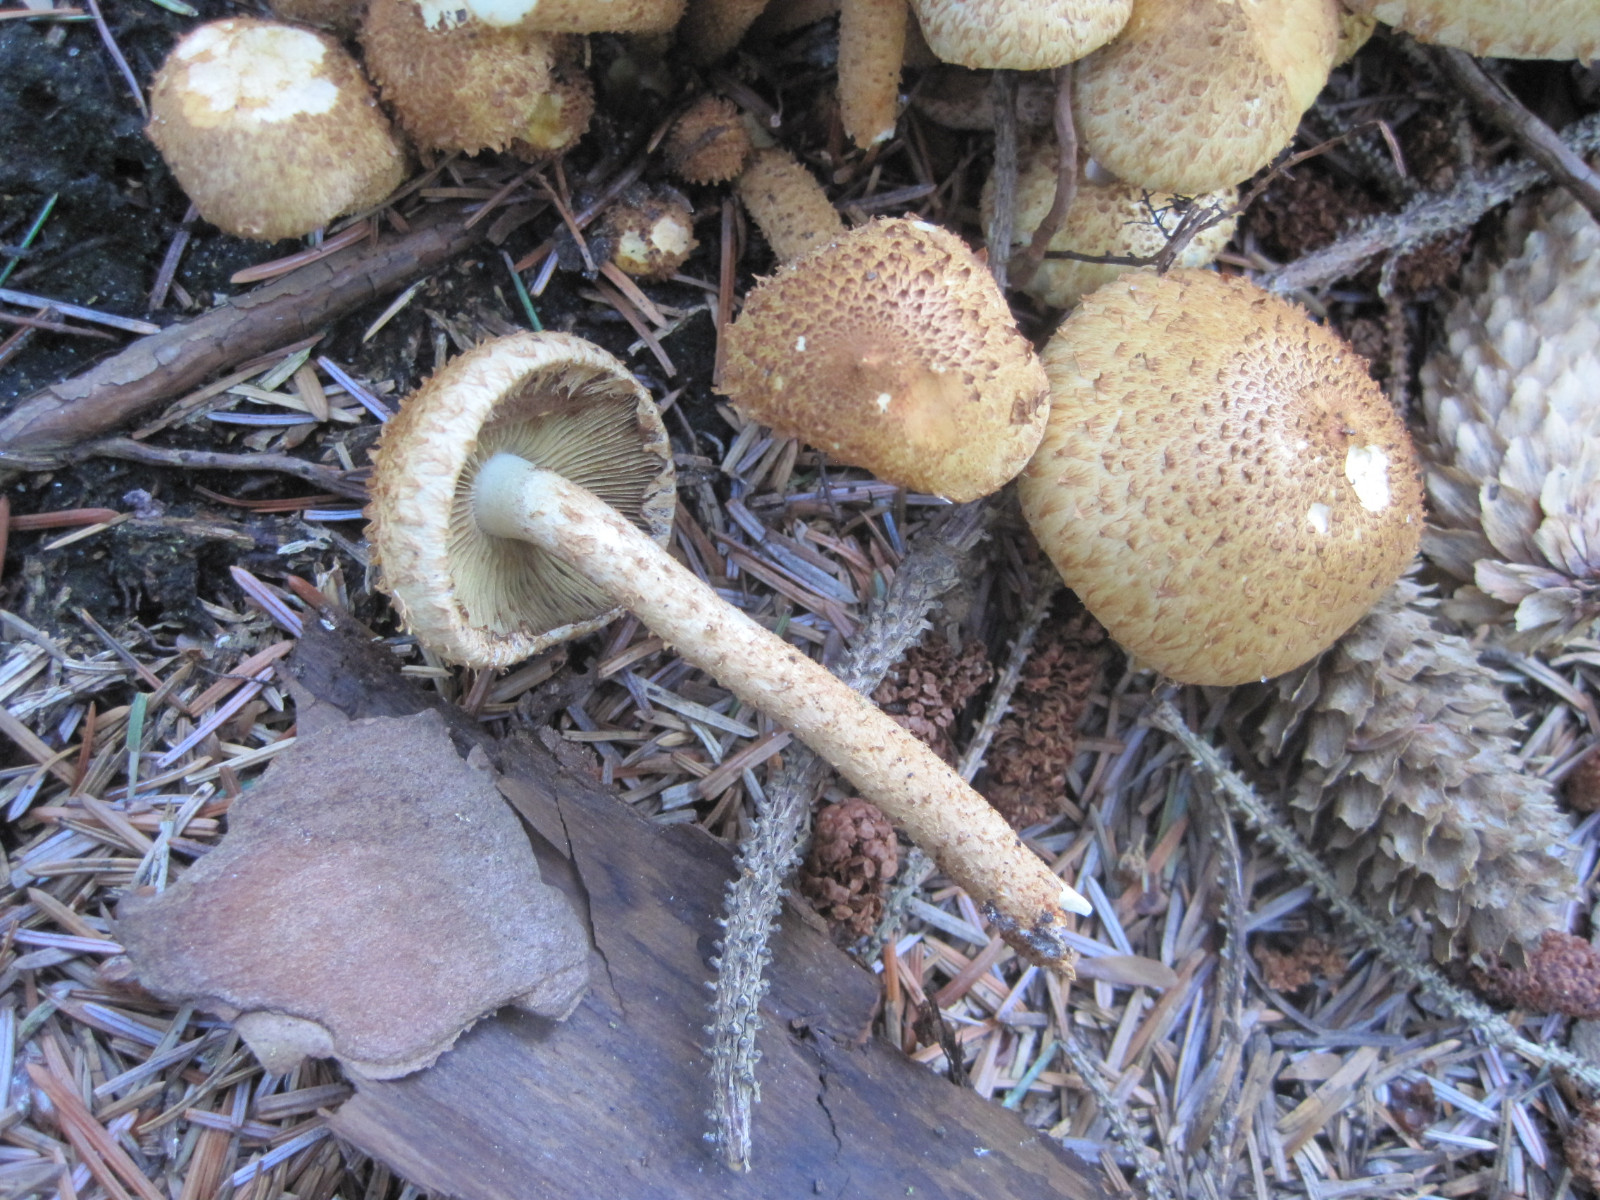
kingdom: Fungi
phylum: Basidiomycota
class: Agaricomycetes
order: Agaricales
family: Strophariaceae
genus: Pholiota
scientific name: Pholiota squarrosa
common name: krumskællet skælhat
